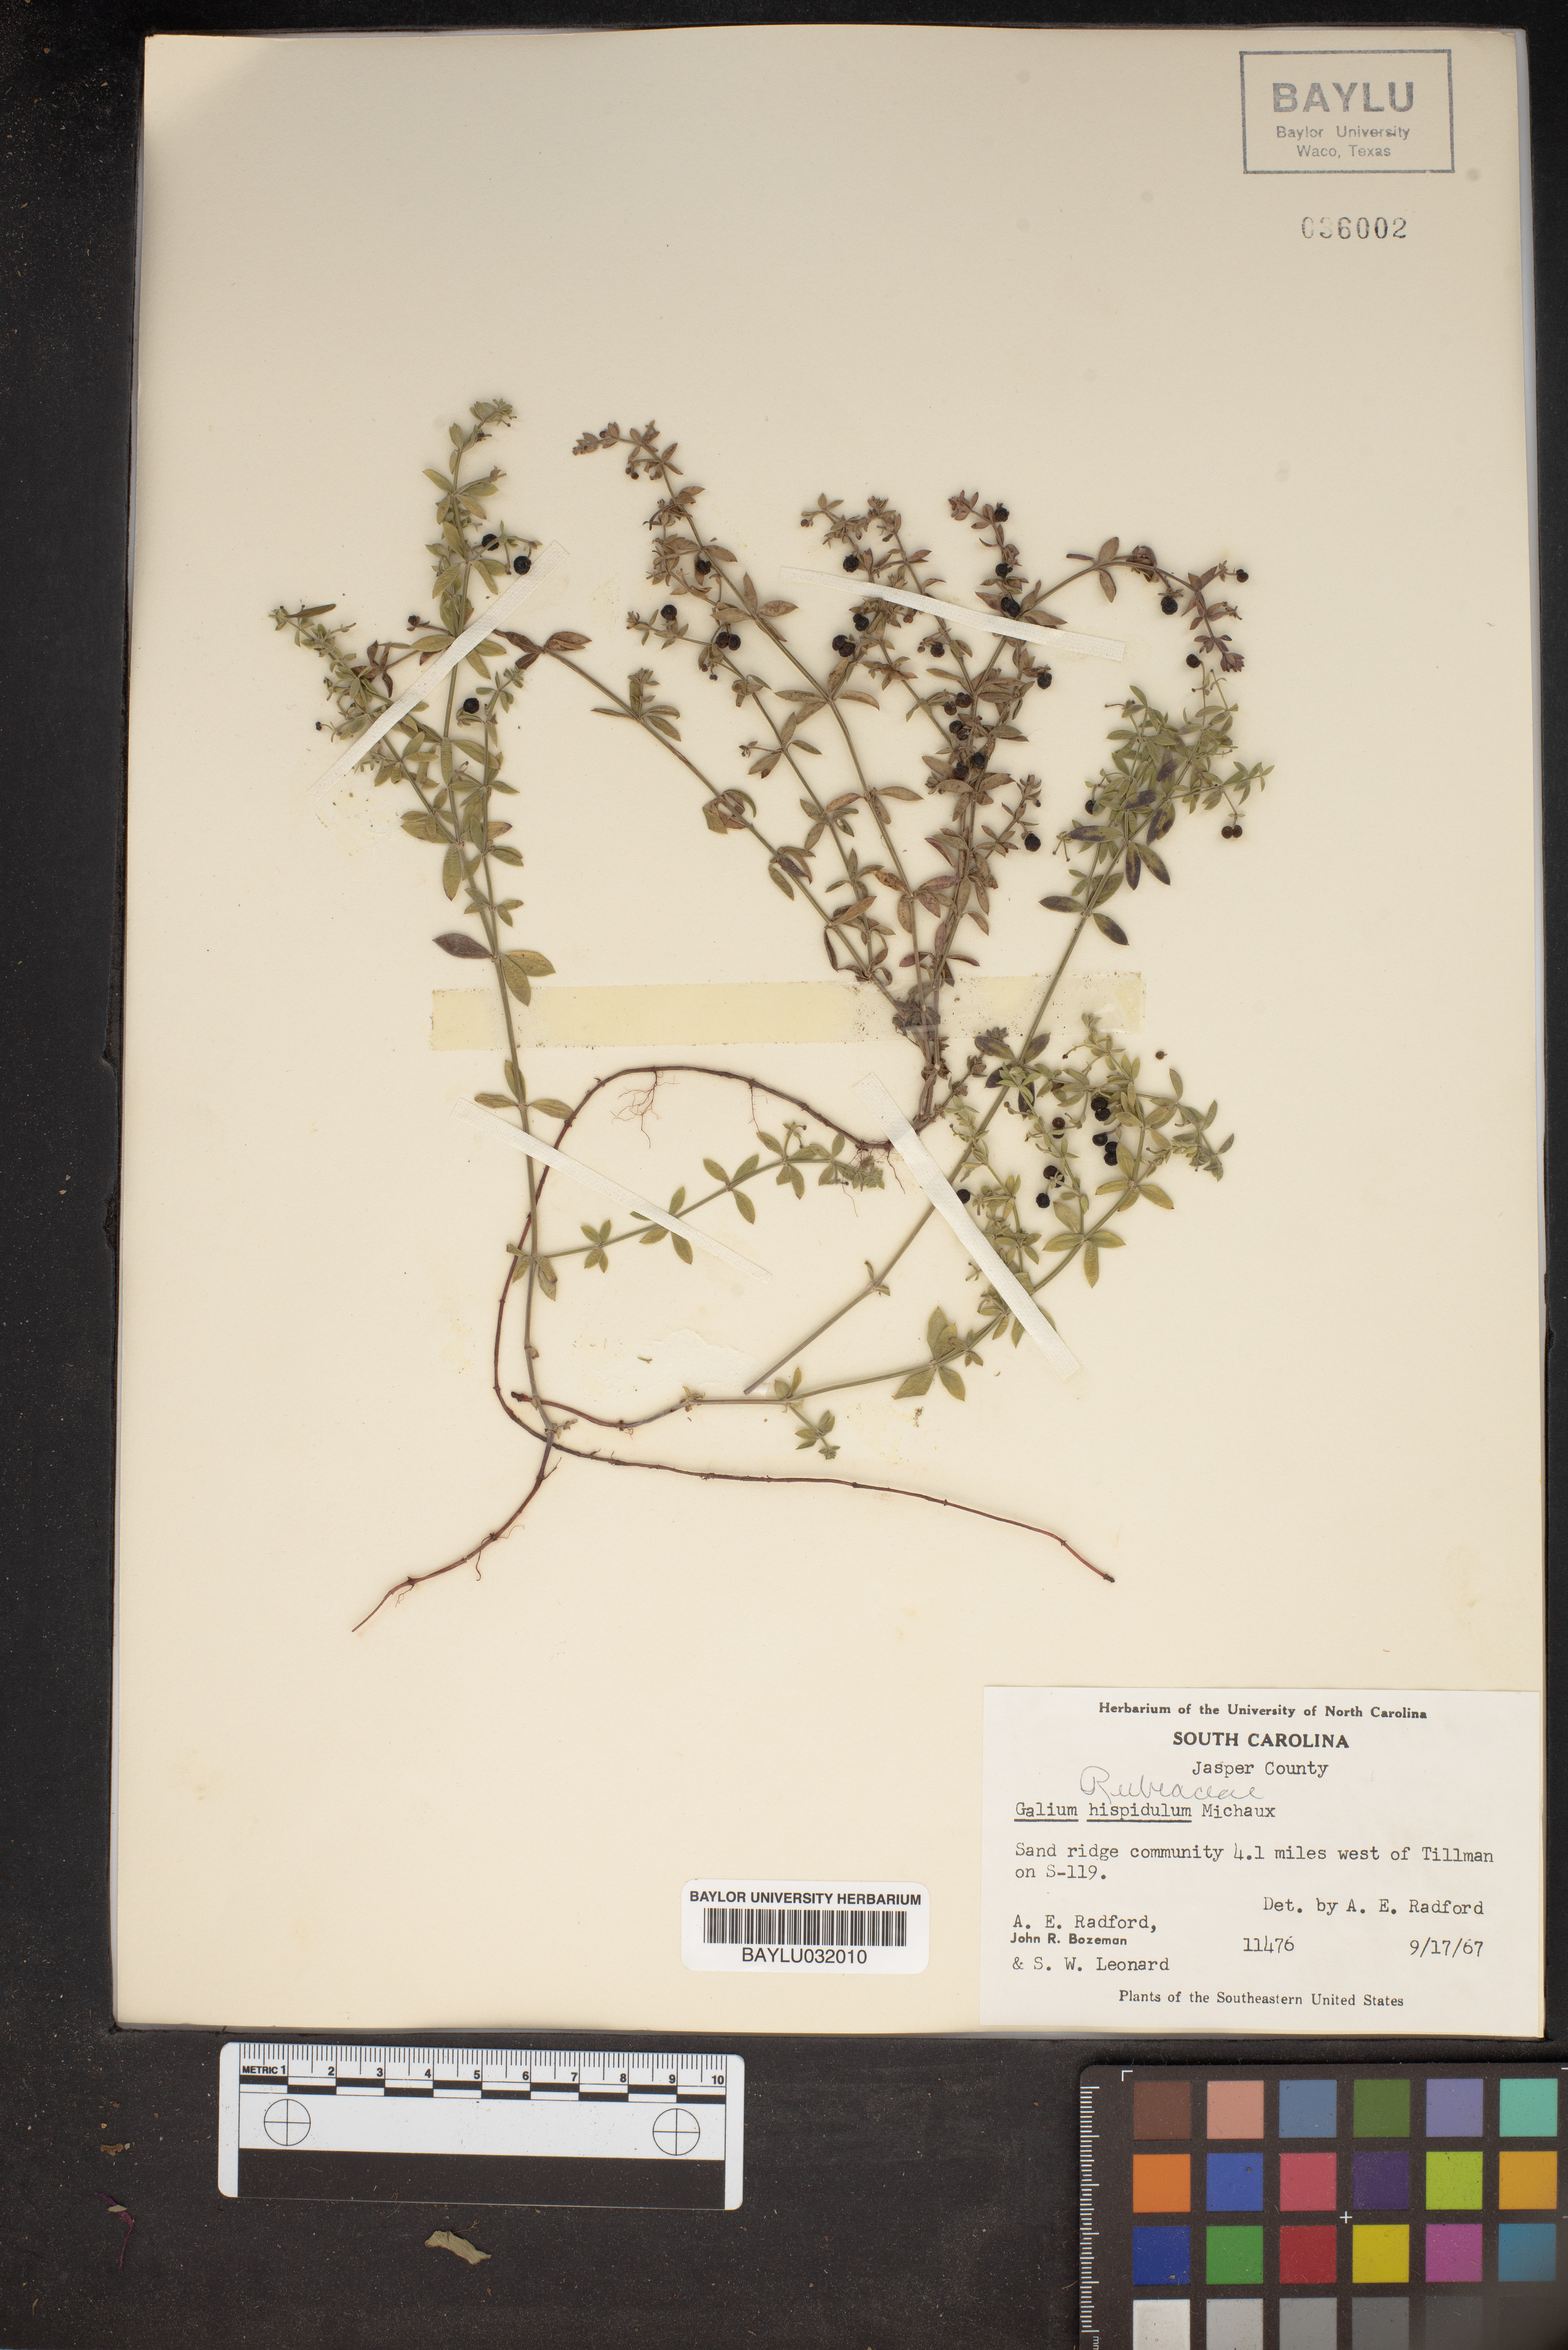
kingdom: Plantae
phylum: Tracheophyta
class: Magnoliopsida
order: Gentianales
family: Rubiaceae
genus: Galium
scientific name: Galium bermudense
